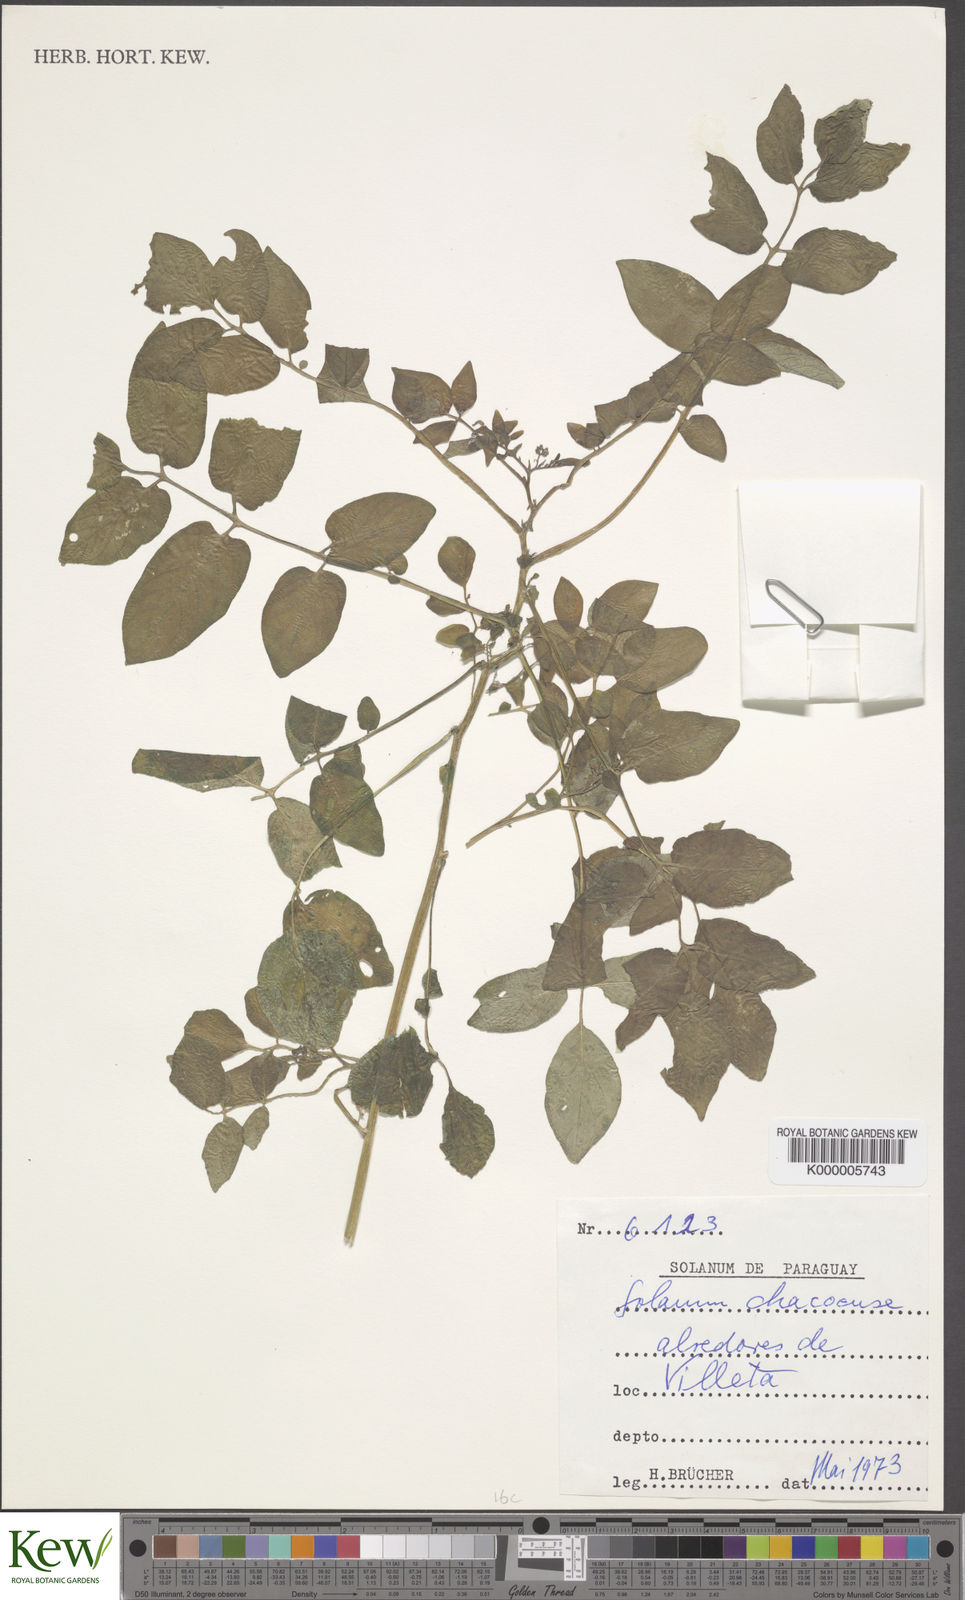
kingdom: Plantae
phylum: Tracheophyta
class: Magnoliopsida
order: Solanales
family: Solanaceae
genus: Solanum
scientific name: Solanum chacoense
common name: Chaco potato
